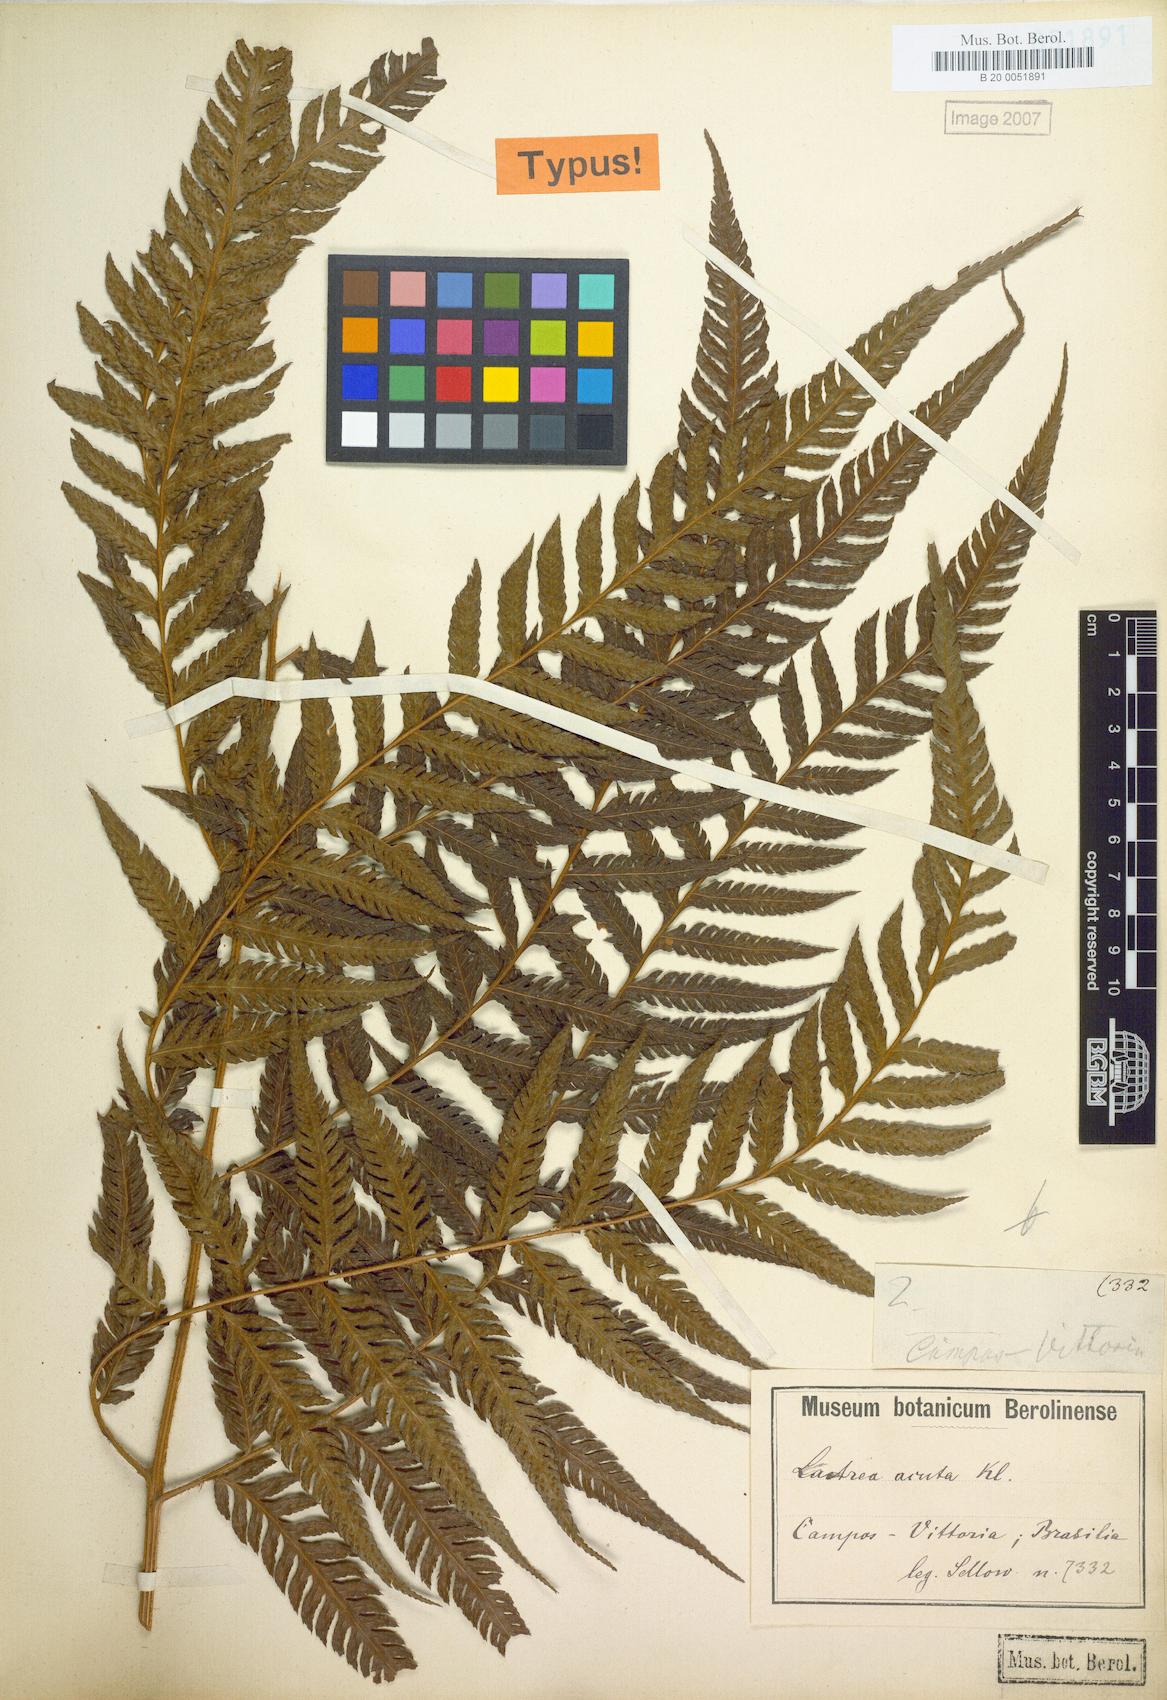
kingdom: Plantae
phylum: Tracheophyta
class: Polypodiopsida
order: Polypodiales
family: Dryopteridaceae
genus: Parapolystichum
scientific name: Parapolystichum acutum
